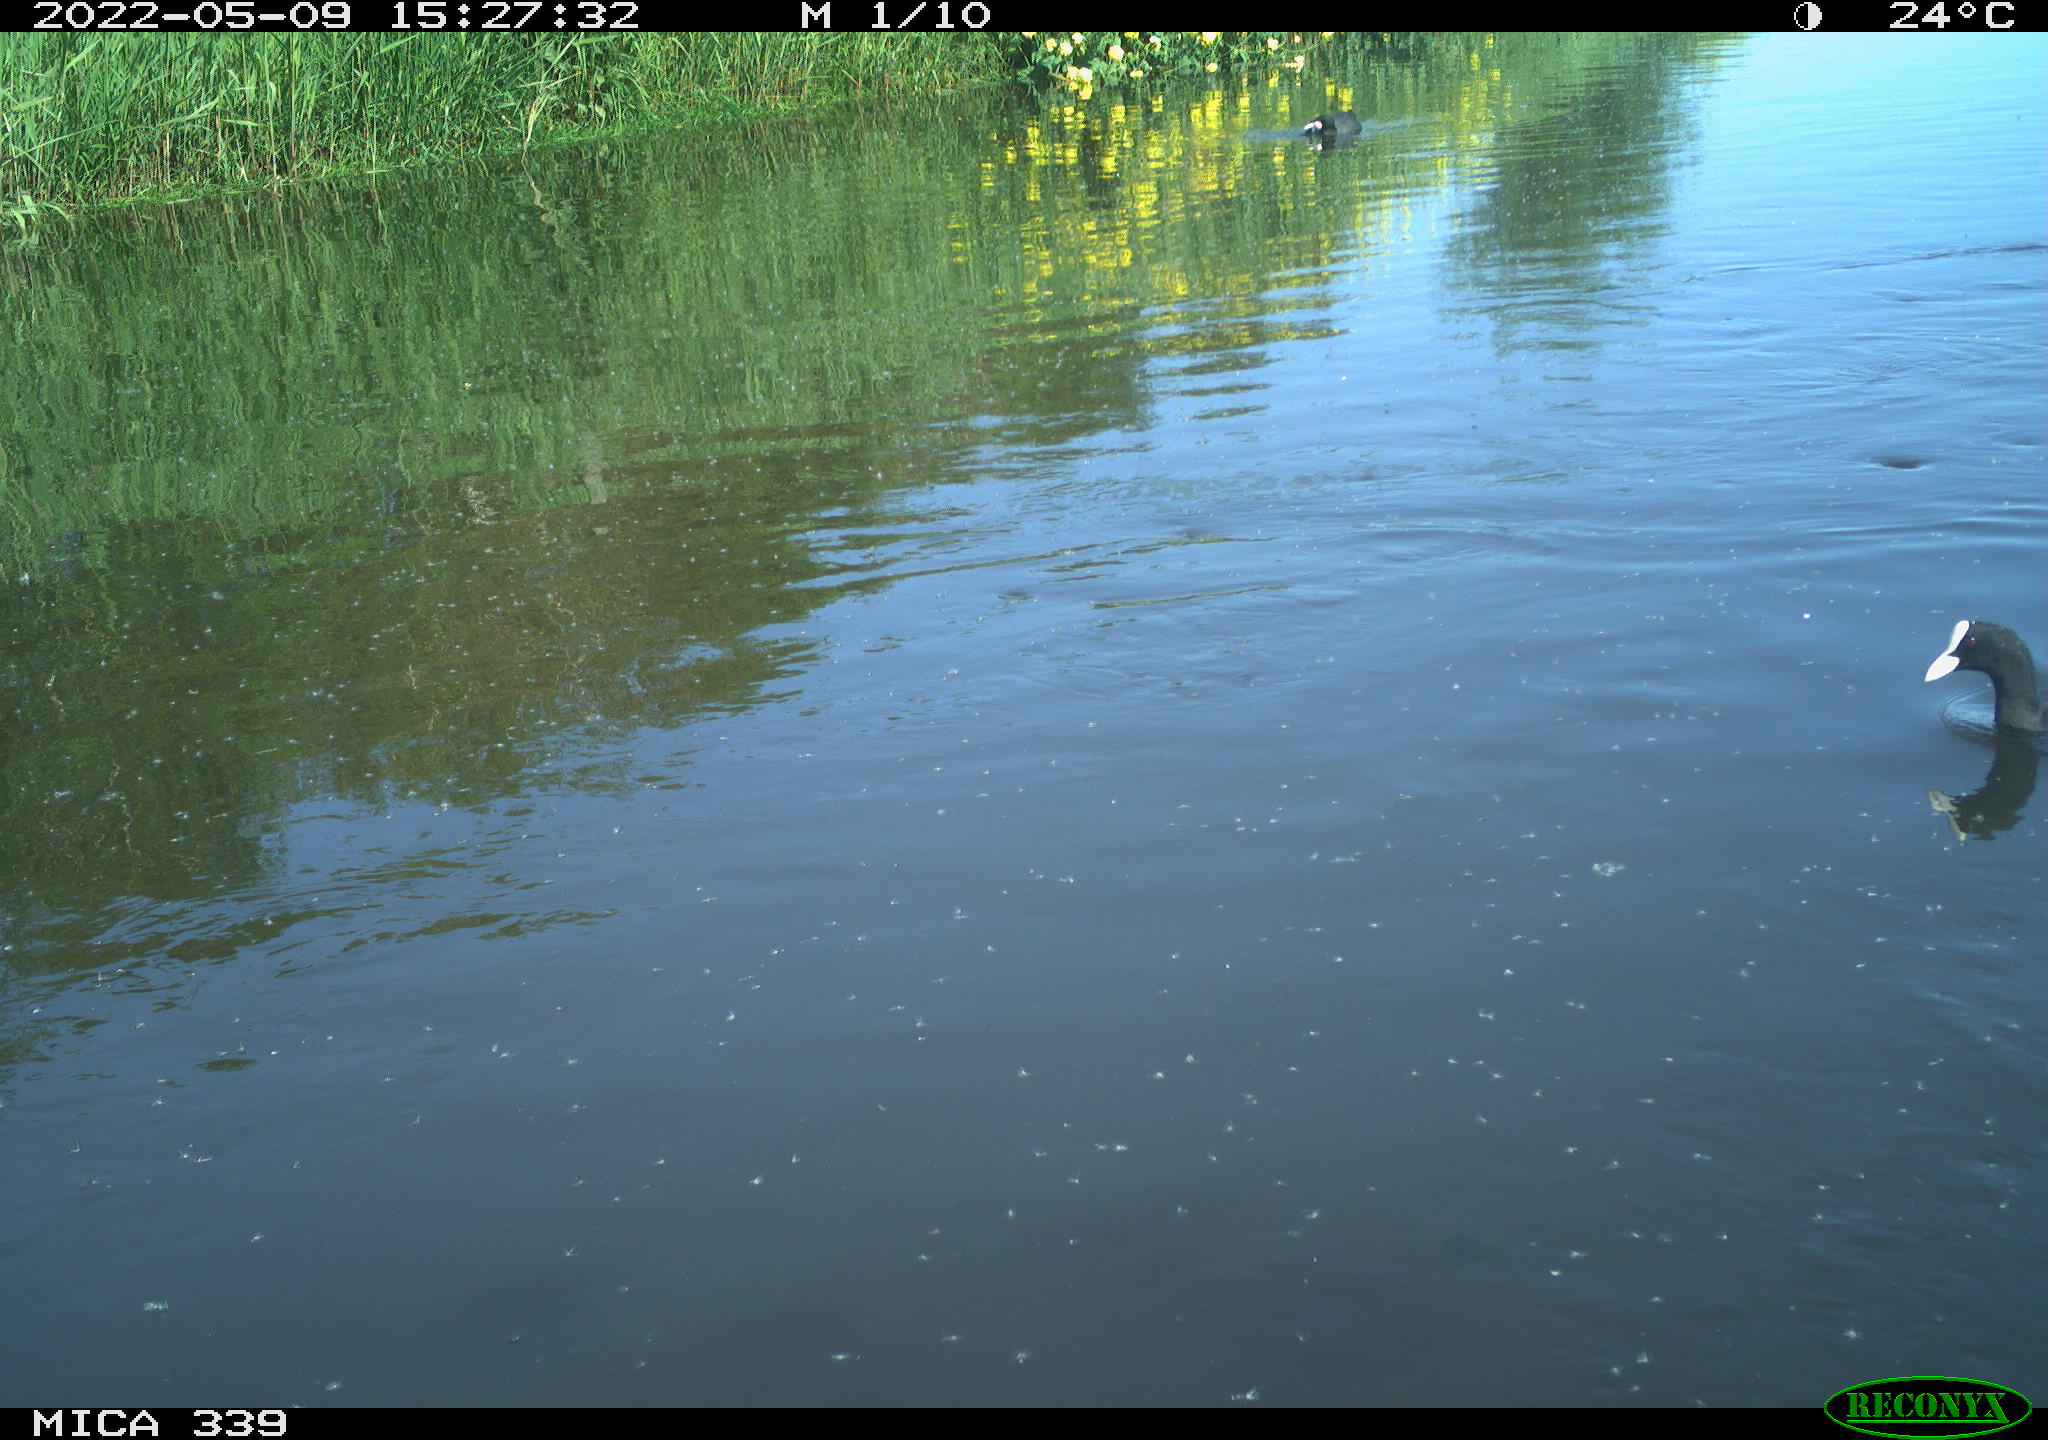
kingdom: Animalia
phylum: Chordata
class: Aves
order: Gruiformes
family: Rallidae
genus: Fulica
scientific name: Fulica atra
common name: Eurasian coot
